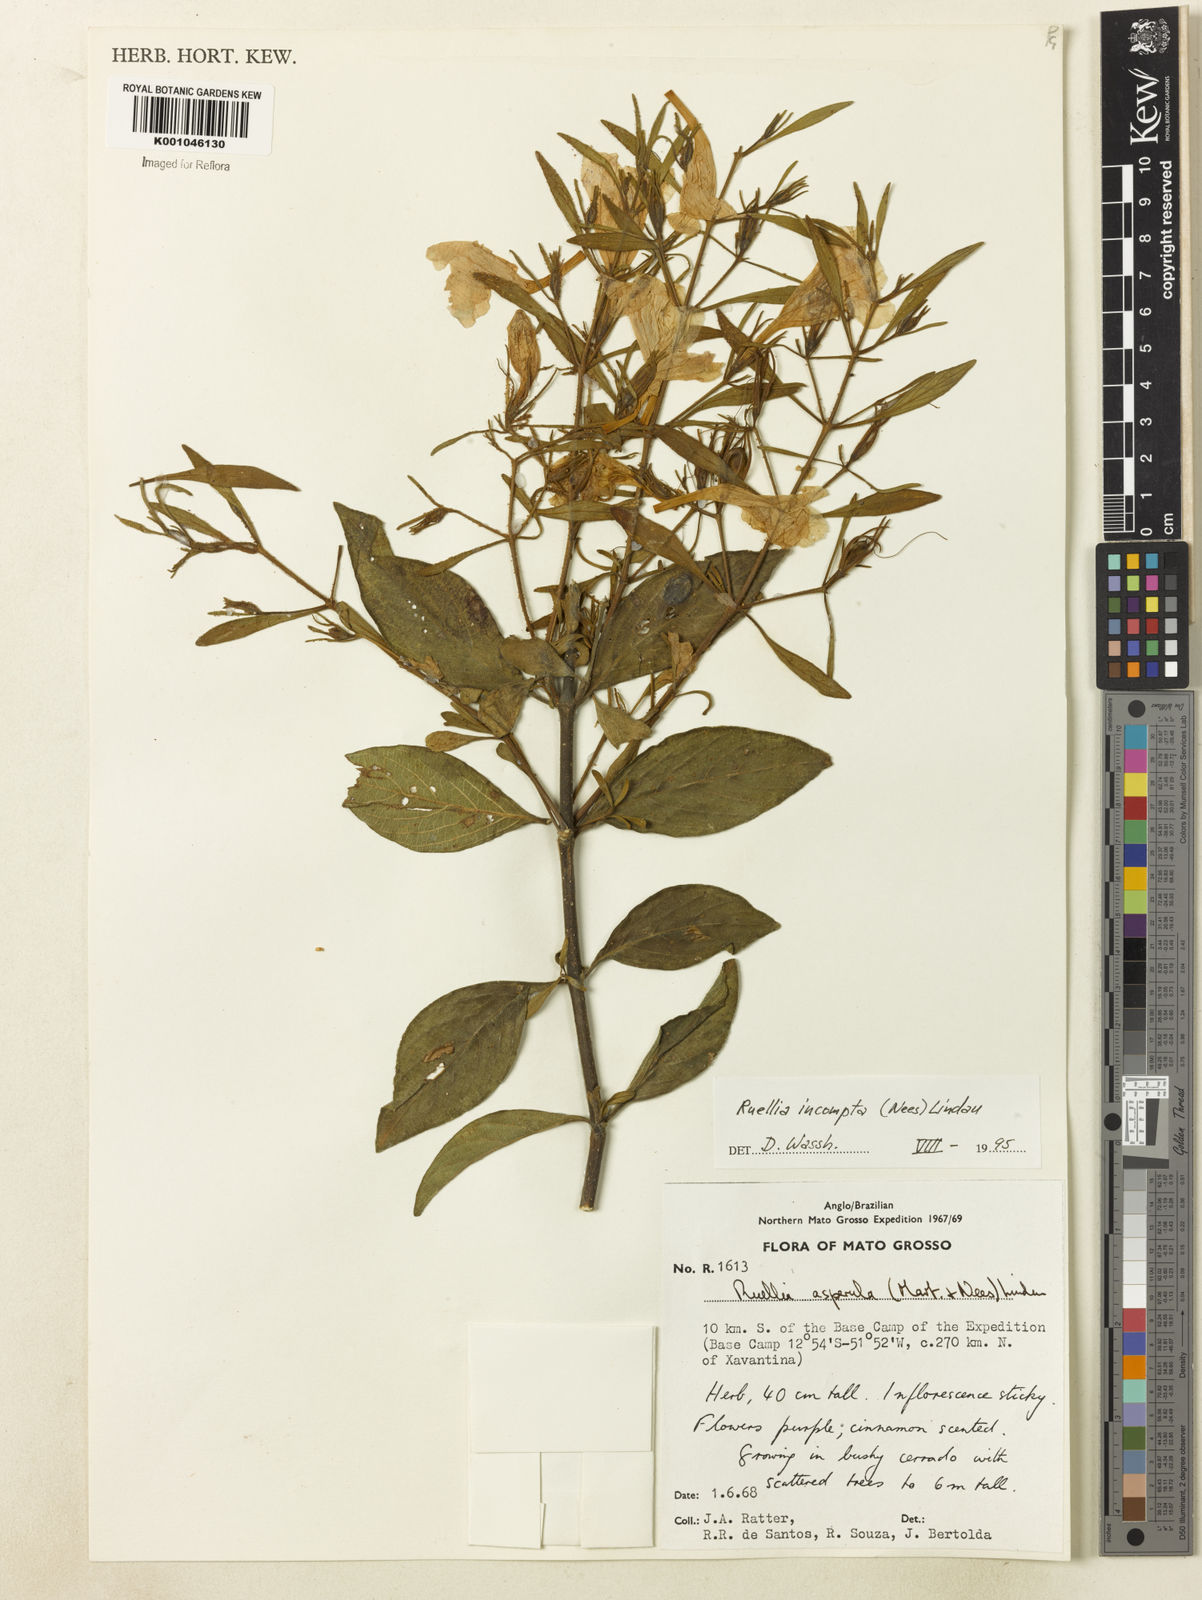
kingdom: Plantae
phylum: Tracheophyta
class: Magnoliopsida
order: Lamiales
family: Acanthaceae
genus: Ruellia
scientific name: Ruellia
